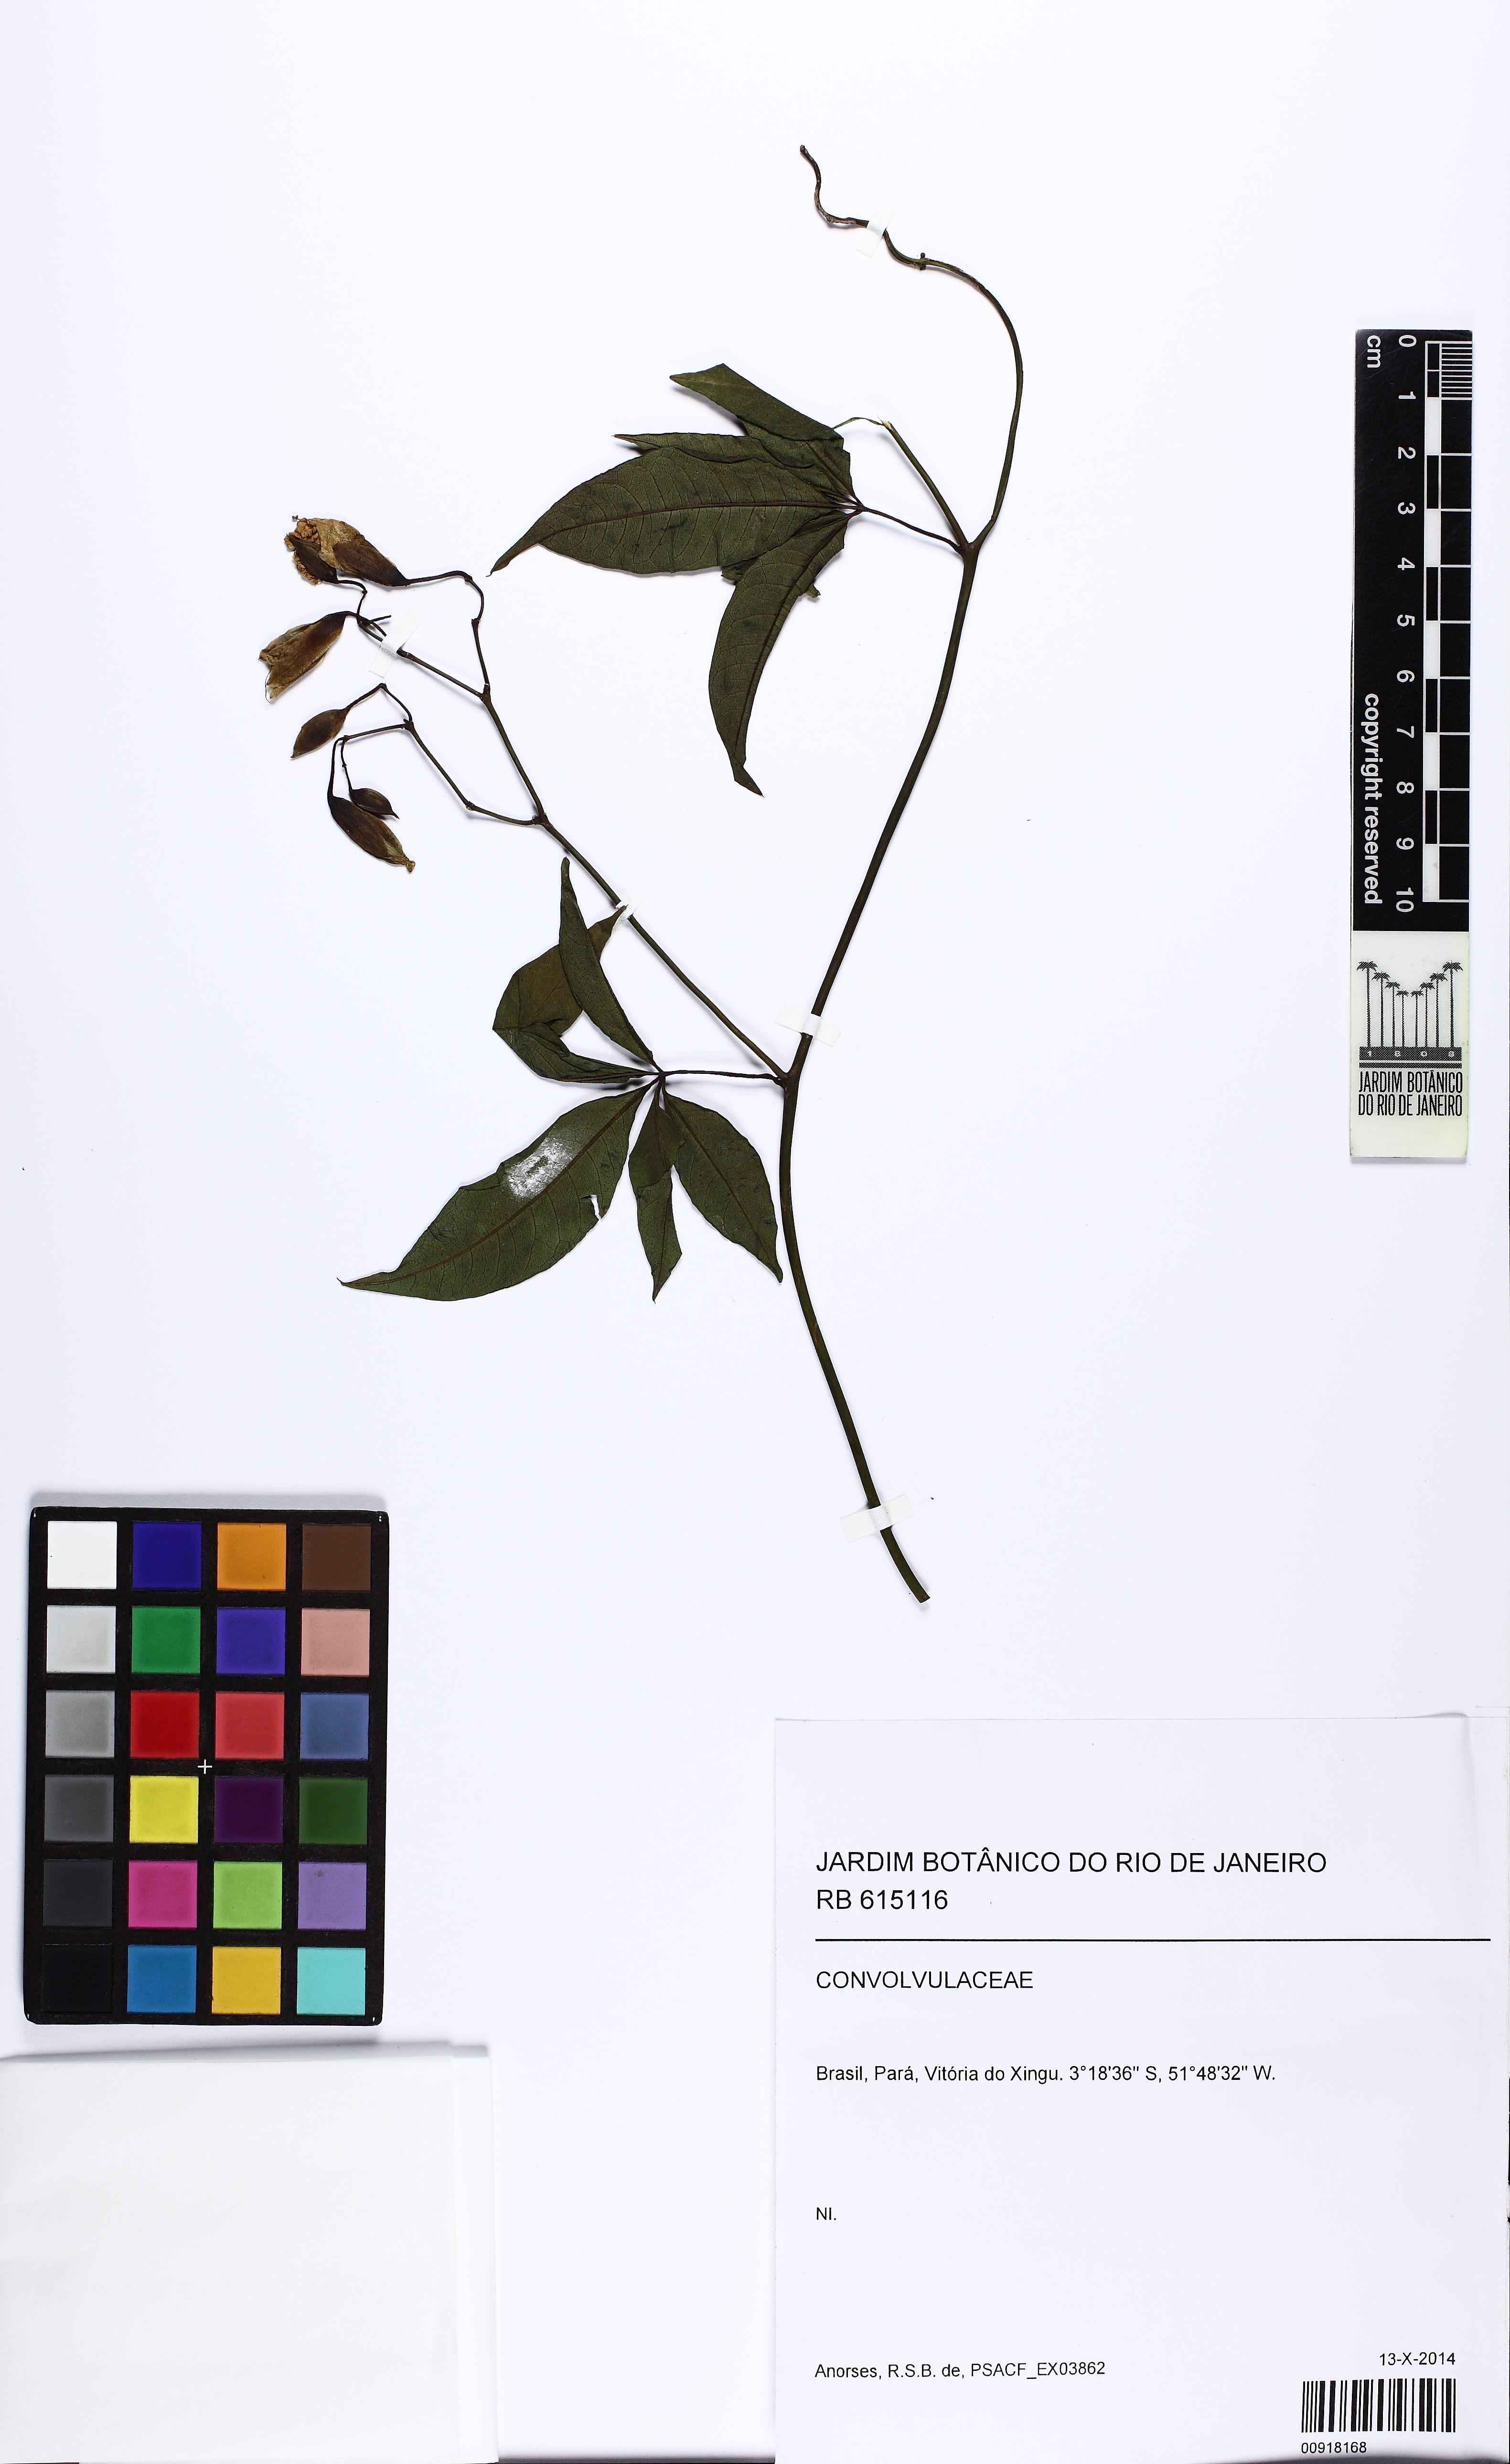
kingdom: Plantae
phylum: Tracheophyta
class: Magnoliopsida
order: Solanales
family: Convolvulaceae
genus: Distimake
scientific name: Distimake macrocalyx
